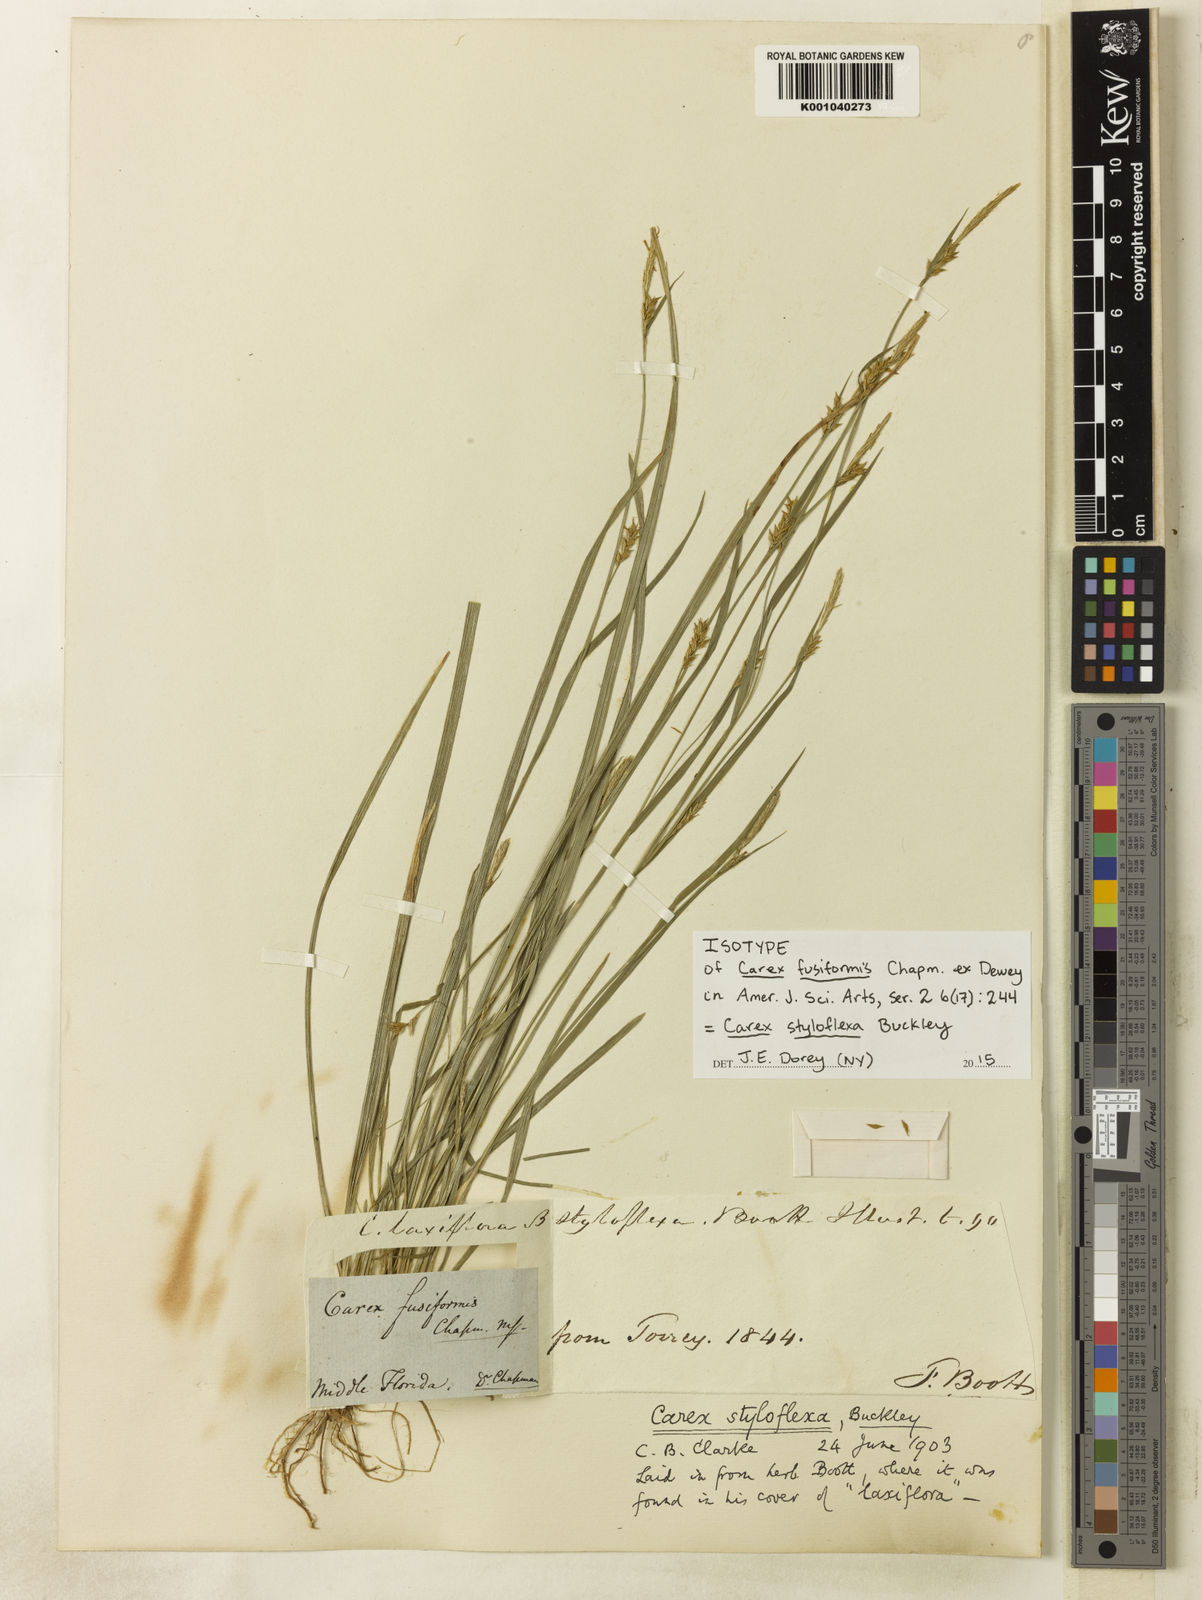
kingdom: Plantae
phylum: Tracheophyta
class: Liliopsida
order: Poales
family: Cyperaceae
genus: Carex
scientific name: Carex chapmanii
